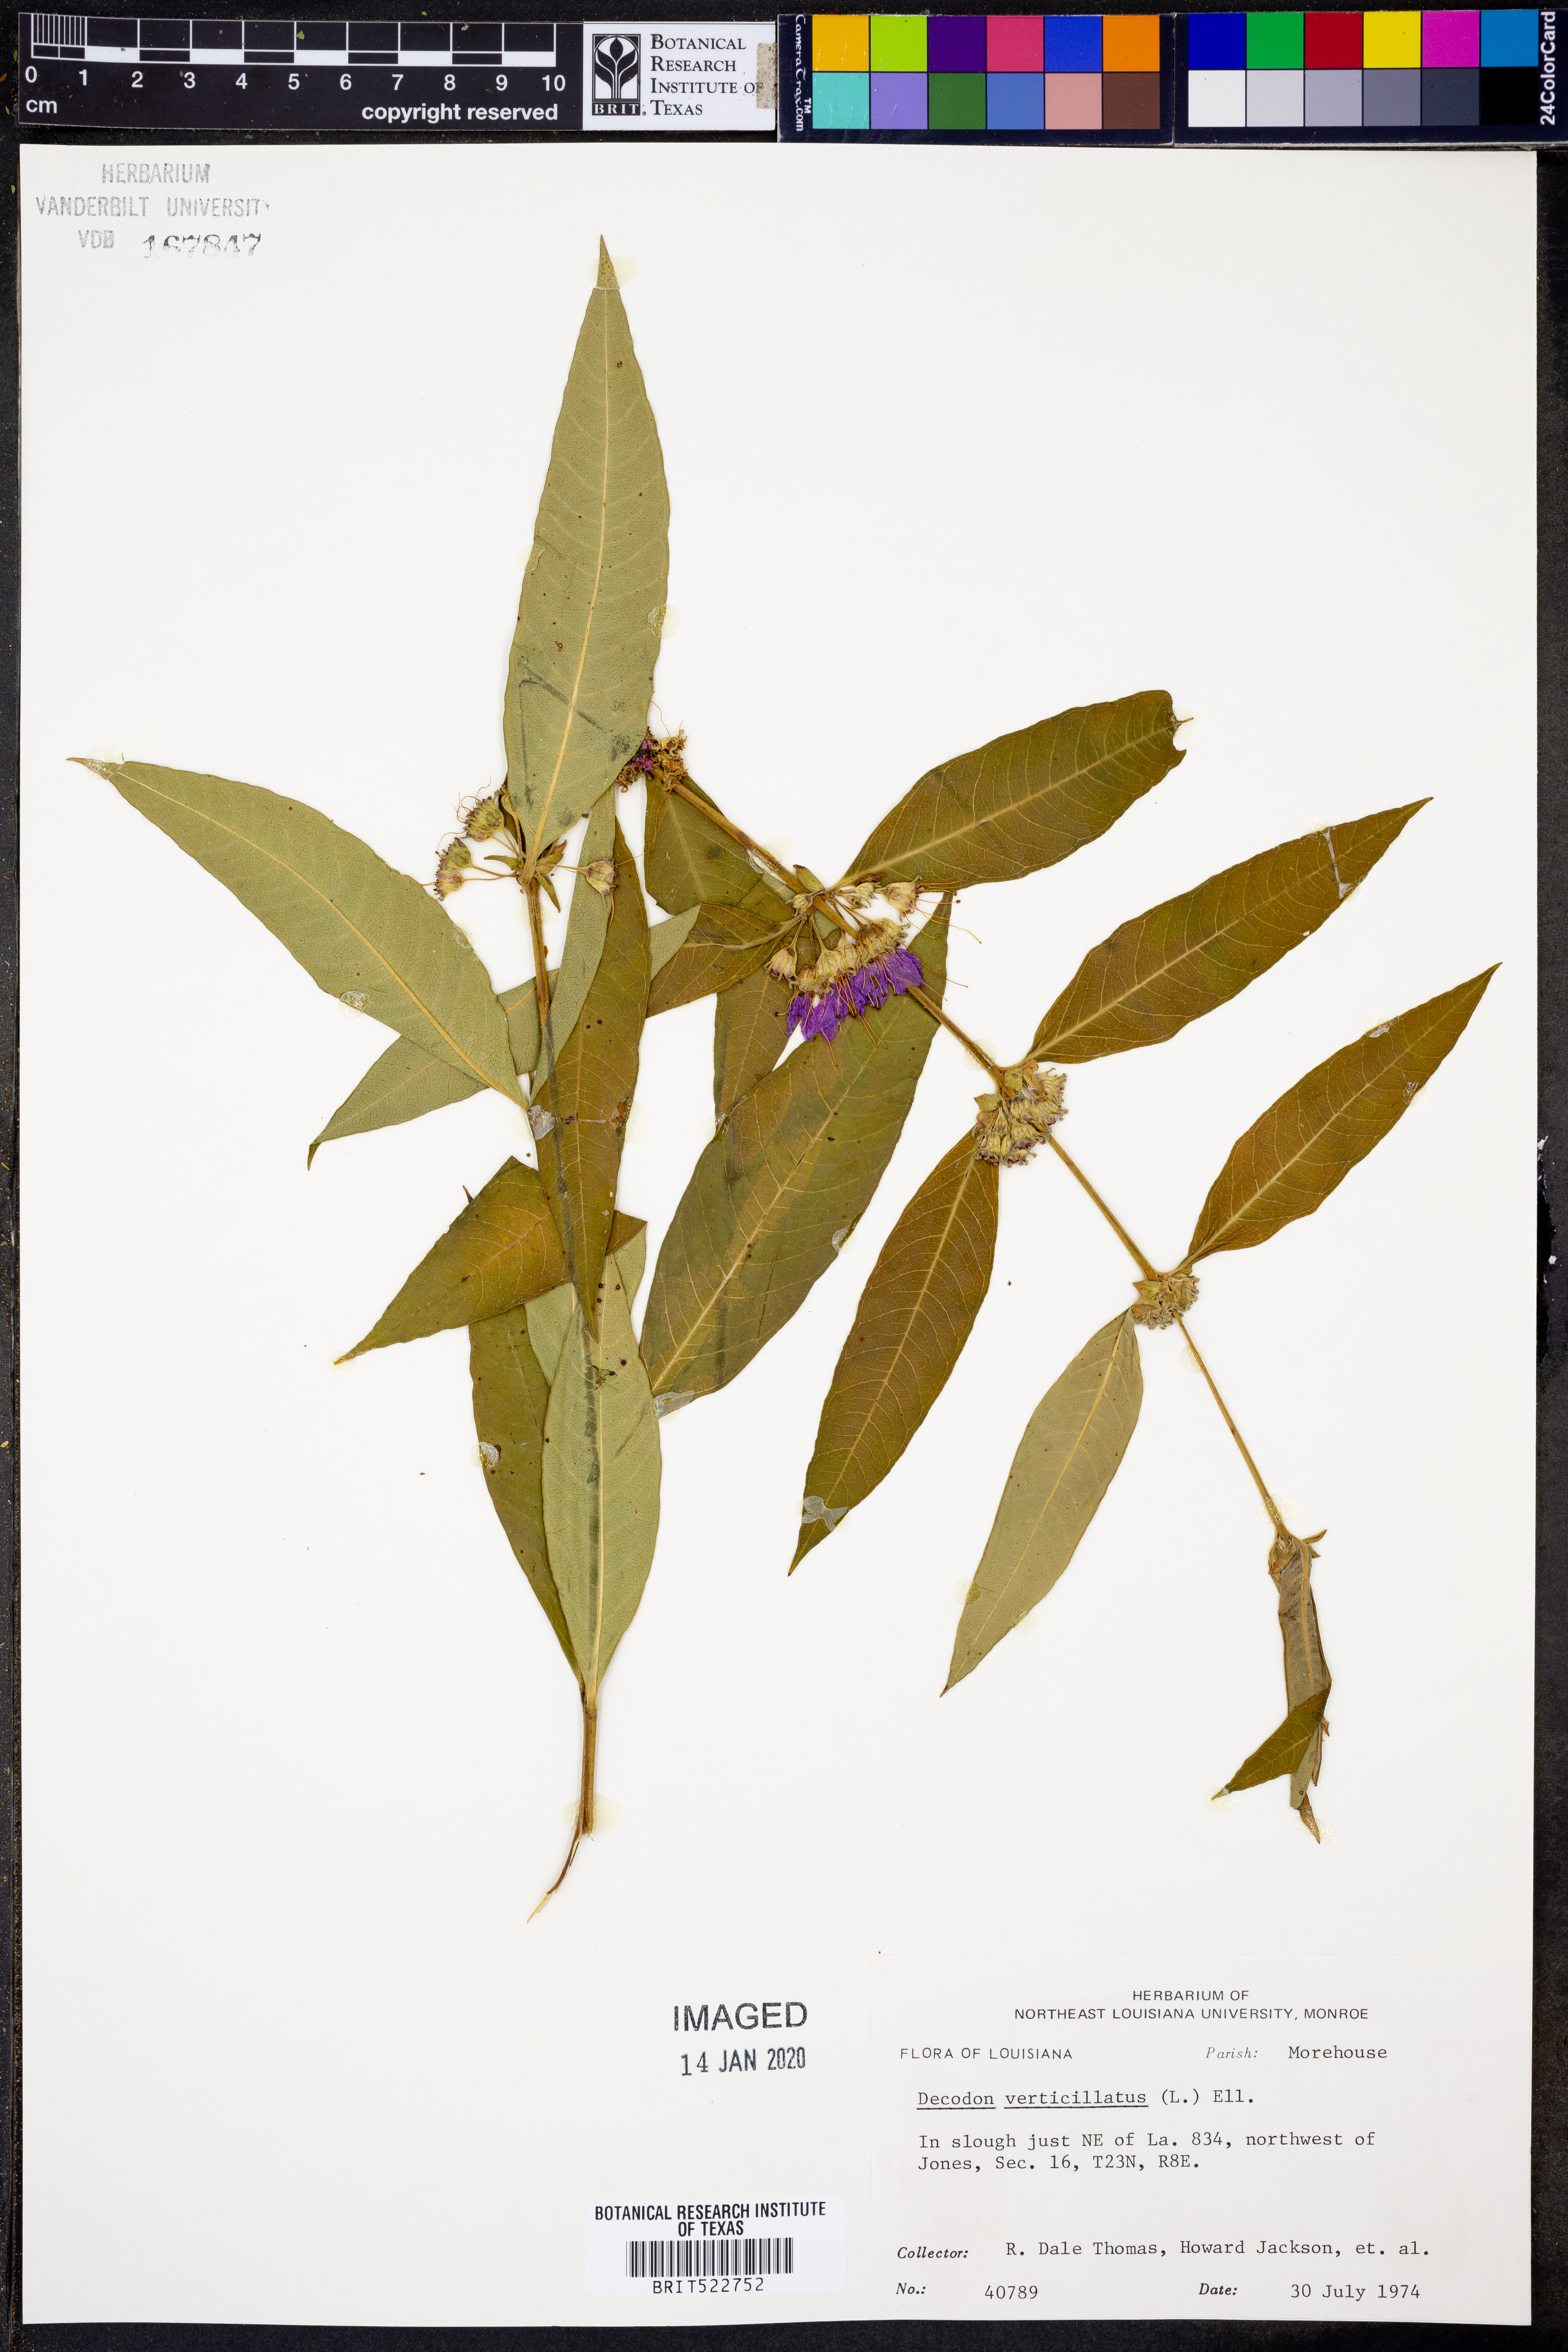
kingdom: Plantae
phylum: Tracheophyta
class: Magnoliopsida
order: Myrtales
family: Lythraceae
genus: Decodon
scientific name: Decodon verticillatus
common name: Hairy swamp loosestrife
